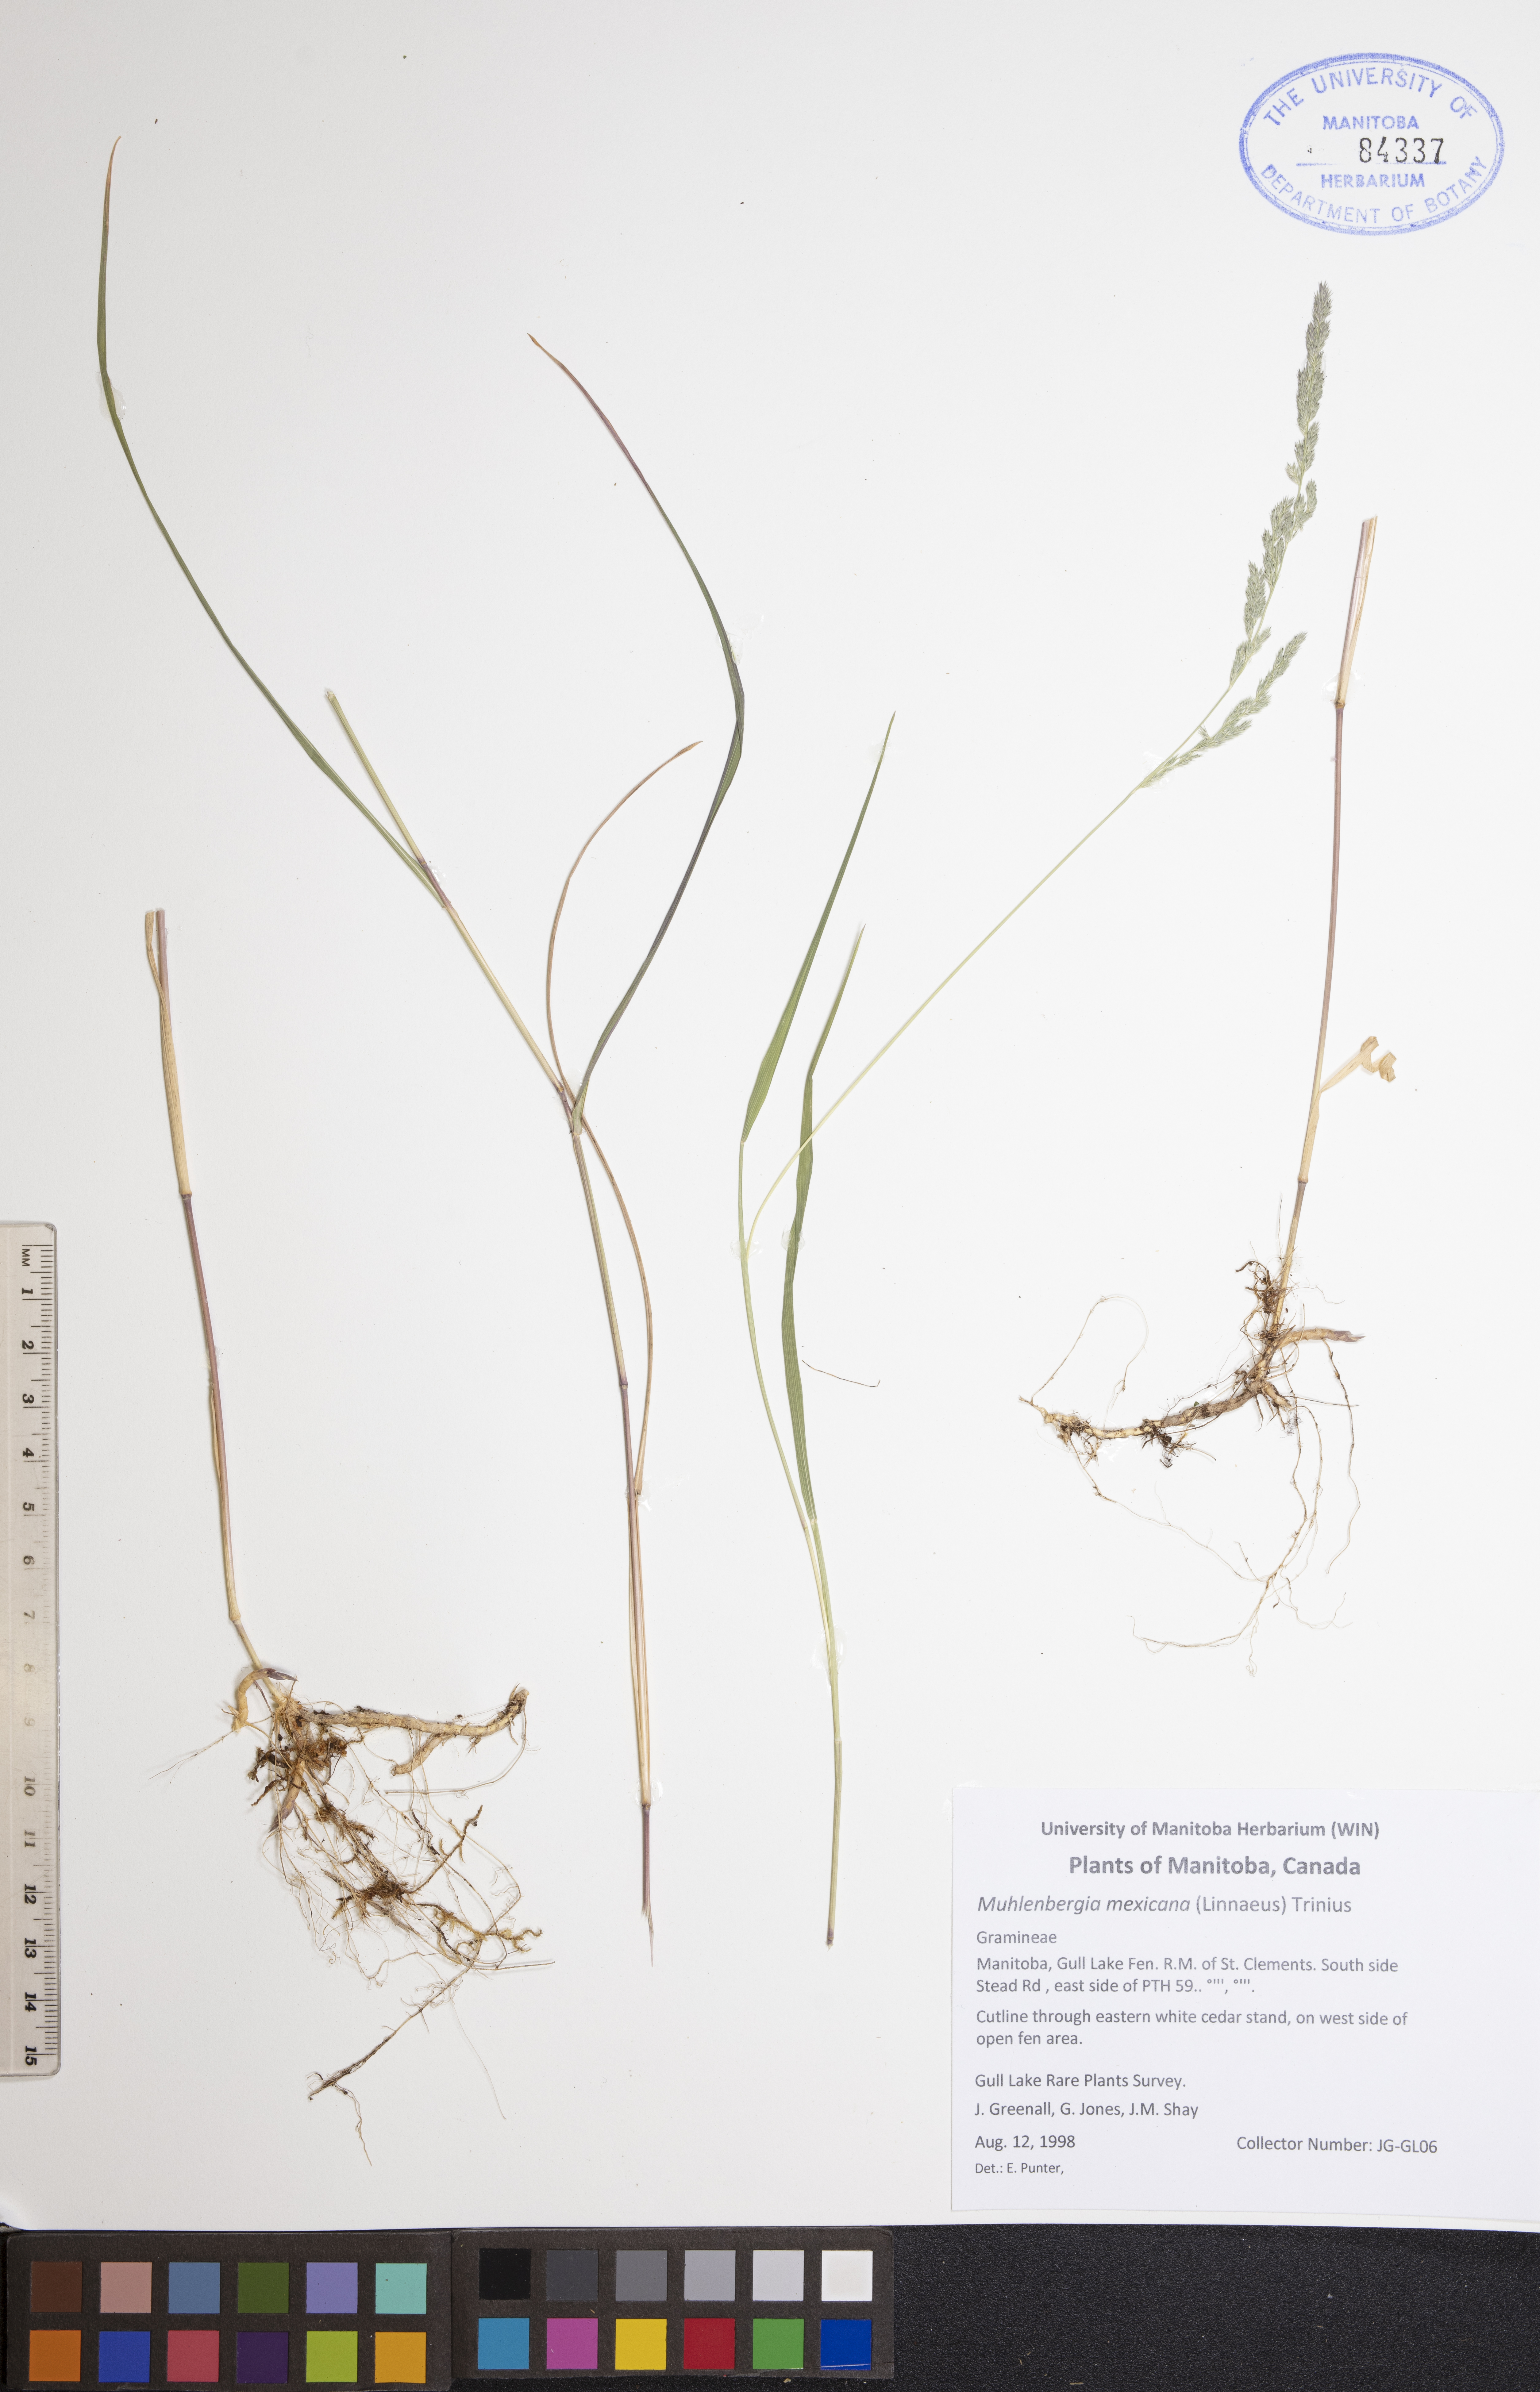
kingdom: Plantae
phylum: Tracheophyta
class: Liliopsida
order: Poales
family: Poaceae
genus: Muhlenbergia
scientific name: Muhlenbergia mexicana
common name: Mexican muhly
